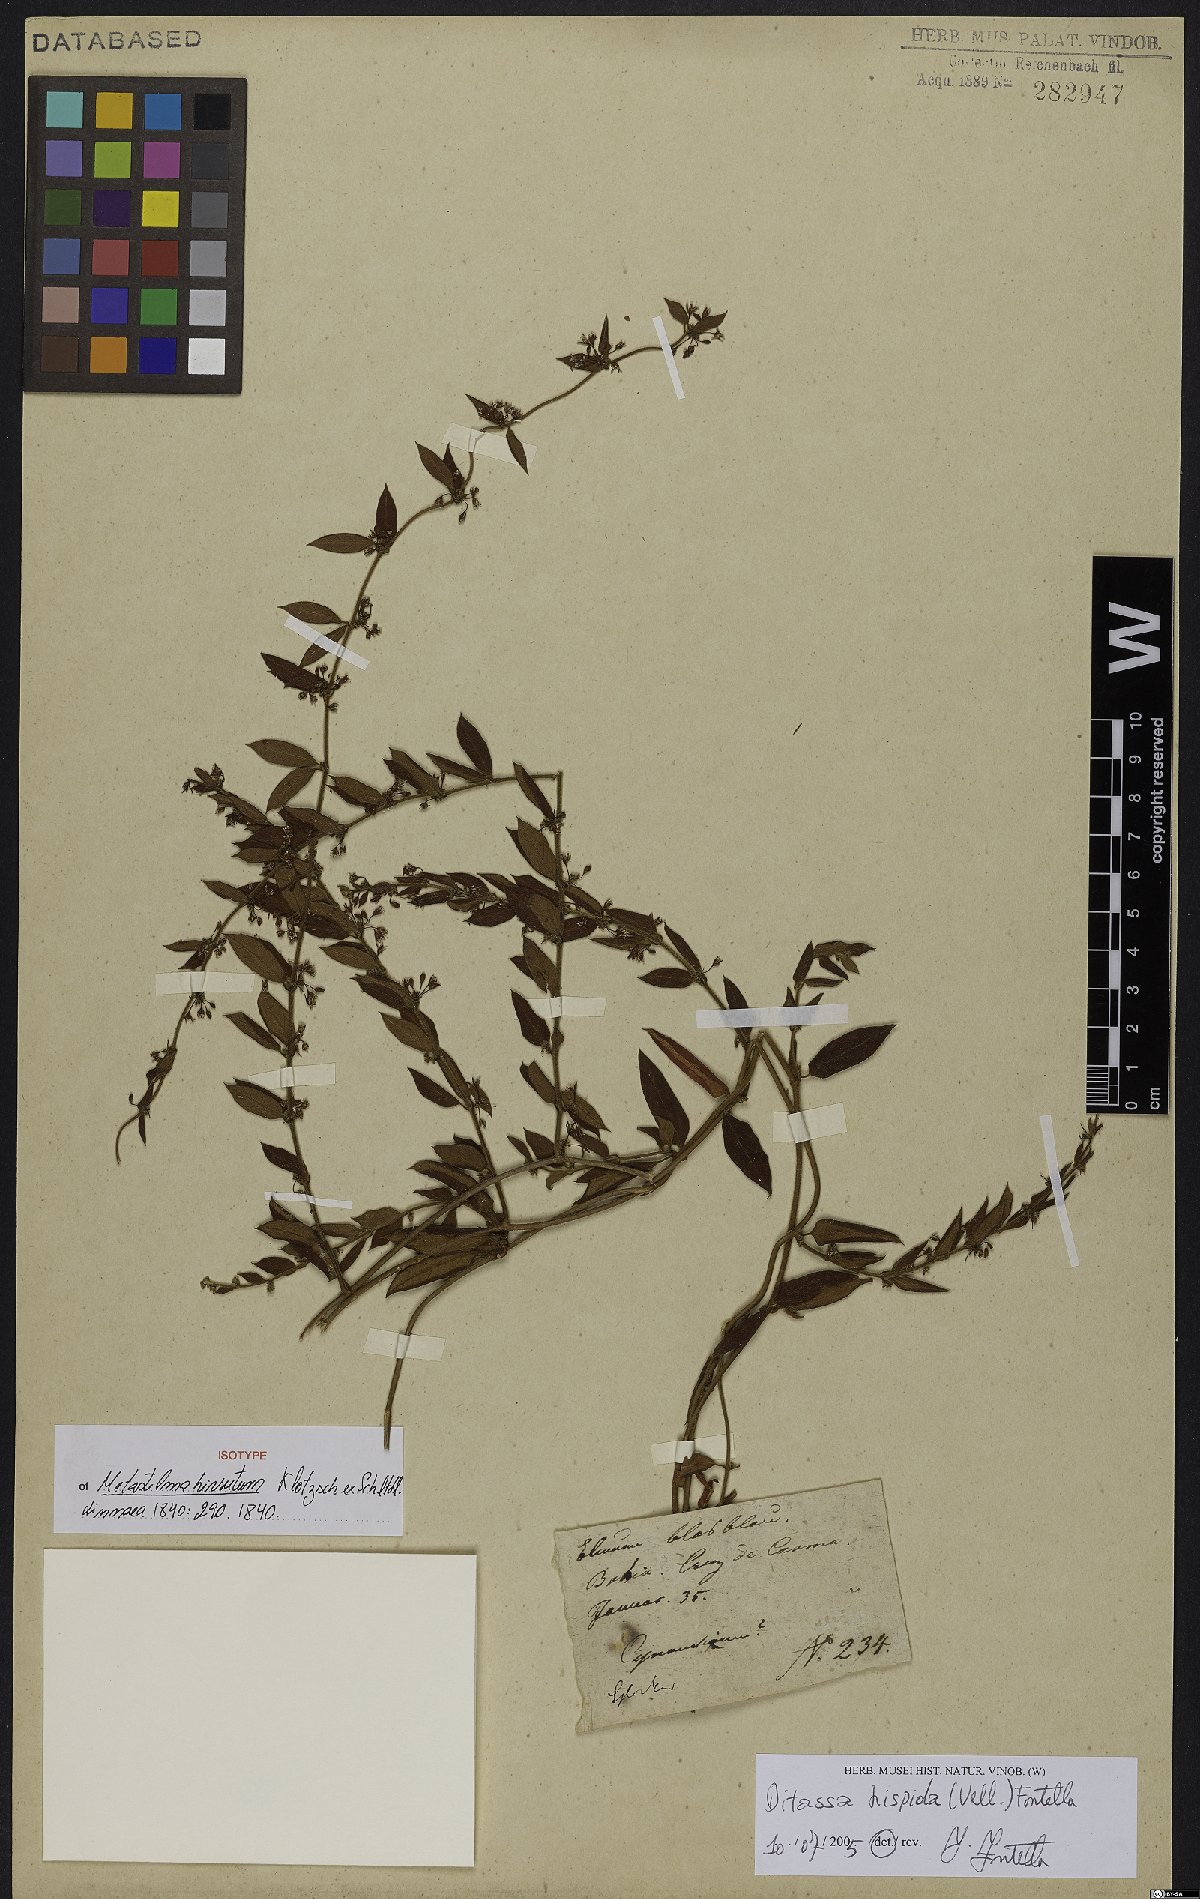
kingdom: Plantae
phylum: Tracheophyta
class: Magnoliopsida
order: Gentianales
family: Apocynaceae
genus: Ditassa
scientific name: Ditassa hispida
